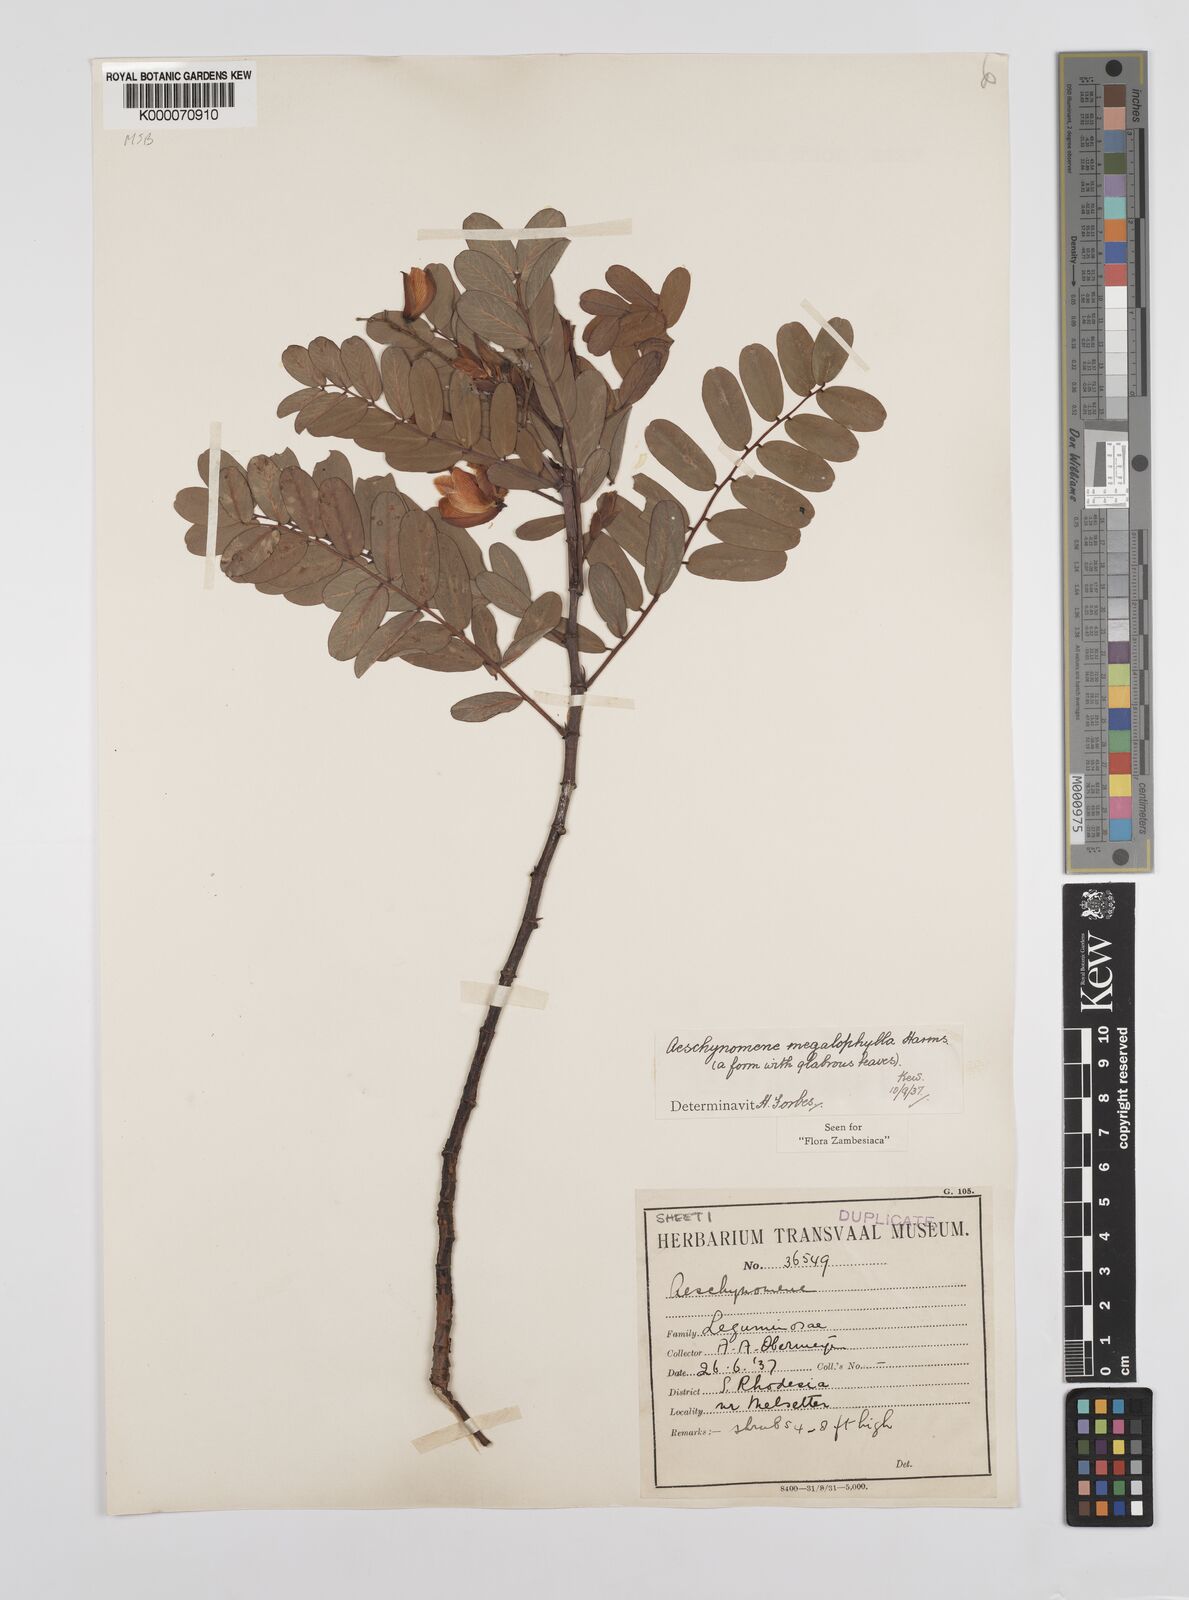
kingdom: Plantae
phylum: Tracheophyta
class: Magnoliopsida
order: Fabales
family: Fabaceae
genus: Aeschynomene
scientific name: Aeschynomene megalophylla
